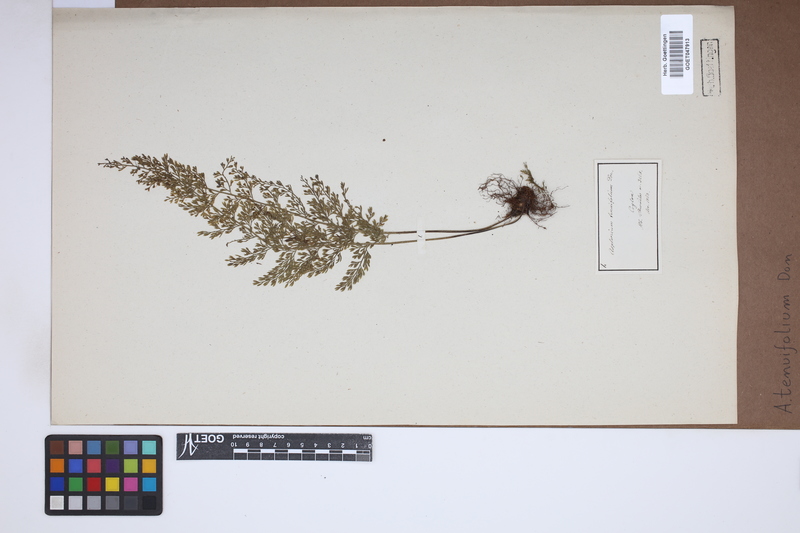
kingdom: Plantae
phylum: Tracheophyta
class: Polypodiopsida
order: Polypodiales
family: Aspleniaceae
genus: Asplenium
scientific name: Asplenium tenuifolium
